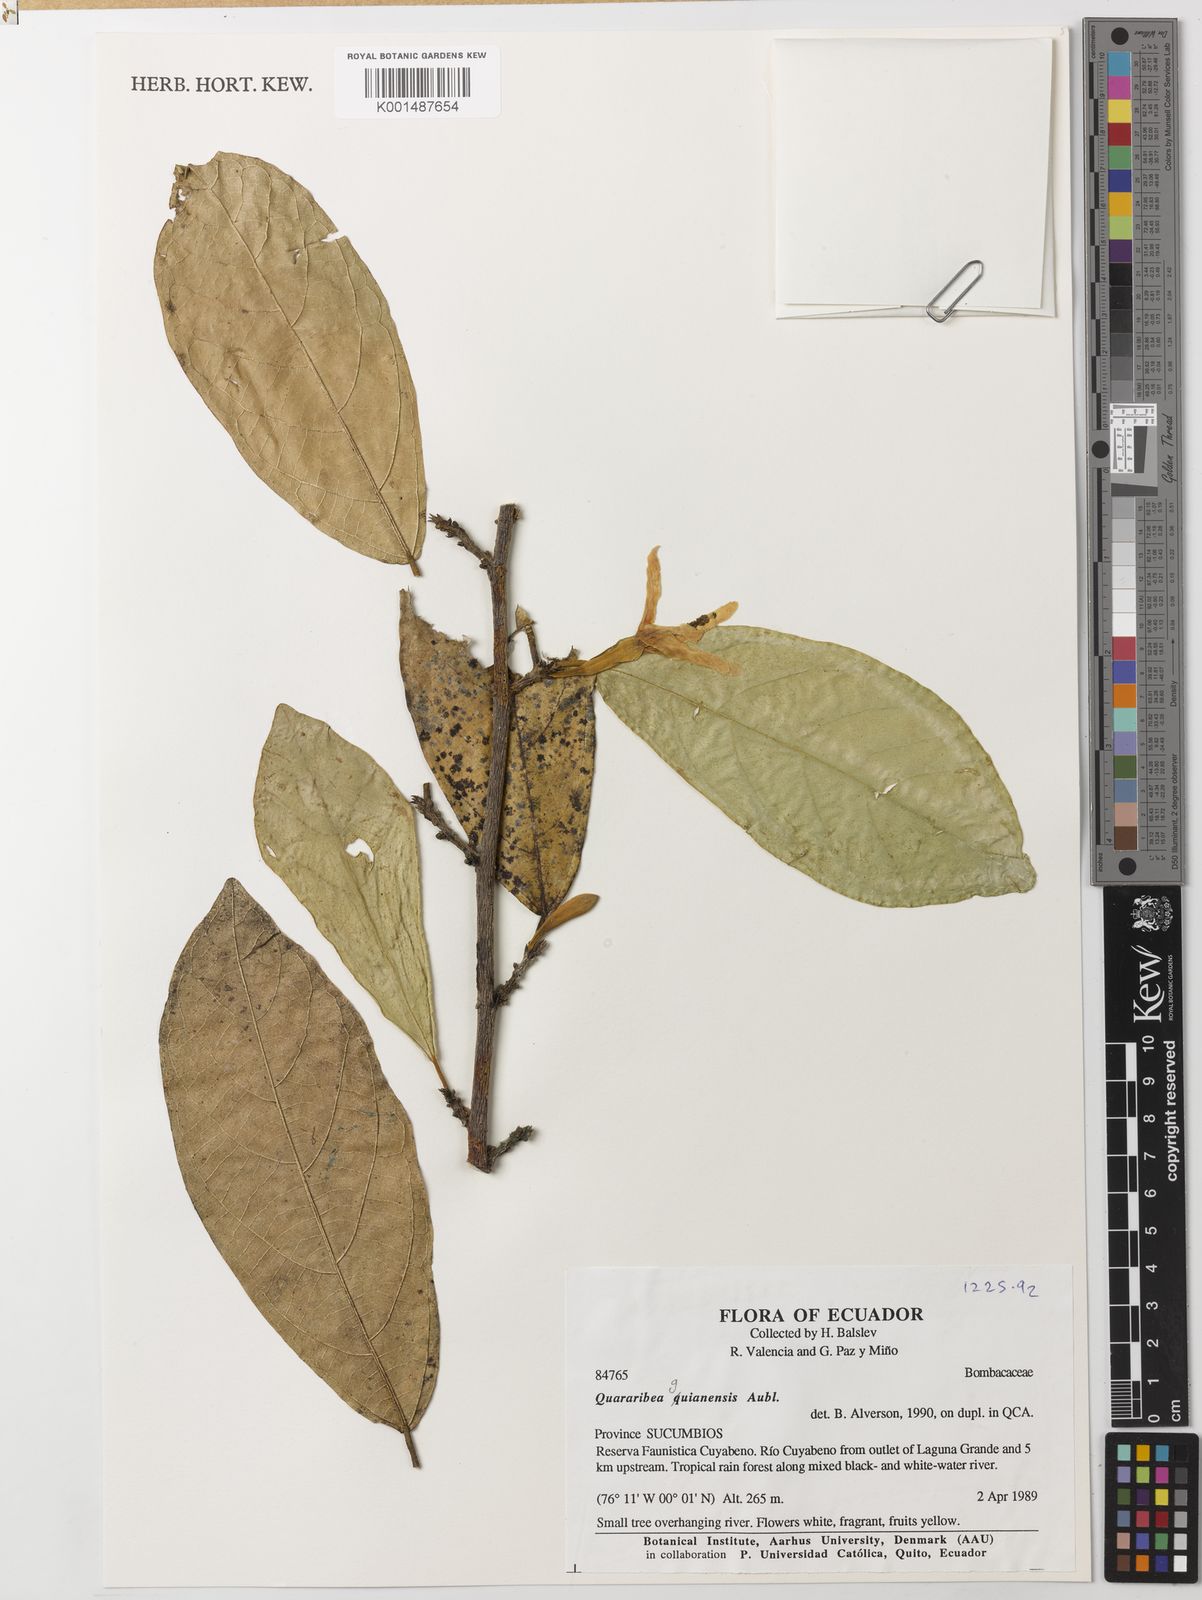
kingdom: Plantae
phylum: Tracheophyta
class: Magnoliopsida
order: Malvales
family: Malvaceae
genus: Quararibea
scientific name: Quararibea guianensis
